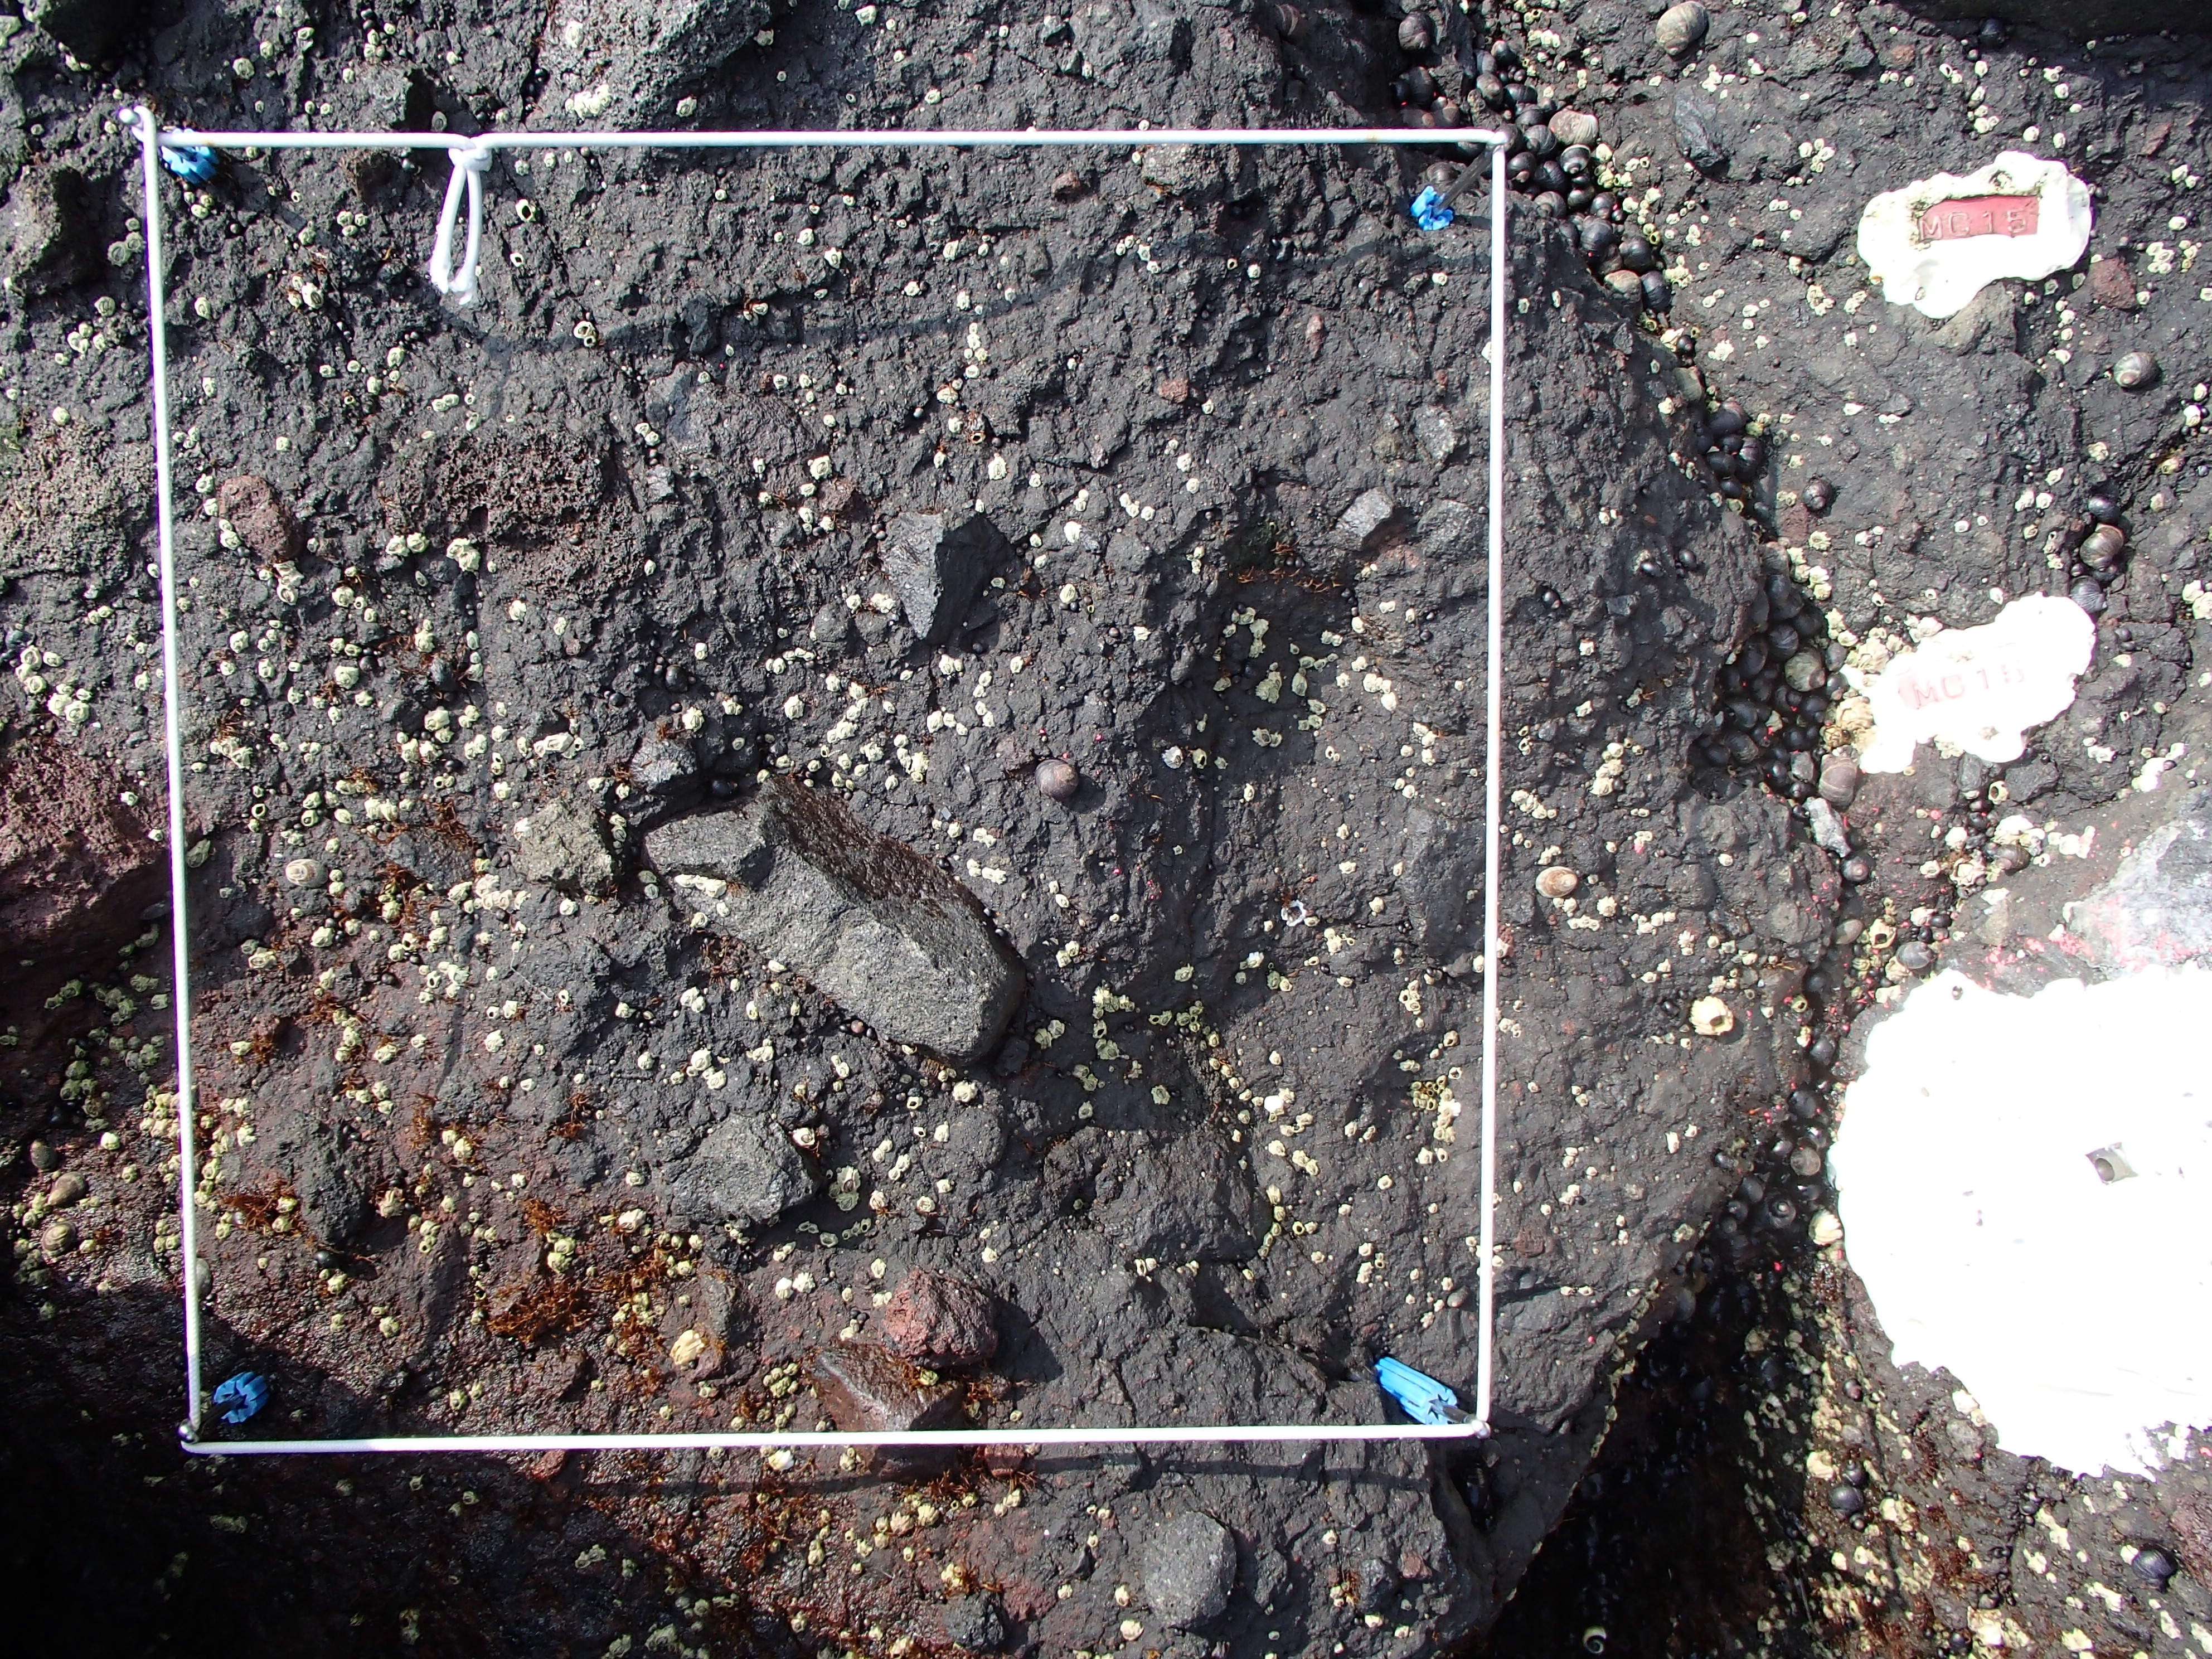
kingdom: Plantae
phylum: Rhodophyta
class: Florideophyceae
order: Gigartinales
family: Endocladiaceae
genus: Gloiopeltis
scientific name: Gloiopeltis furcata
